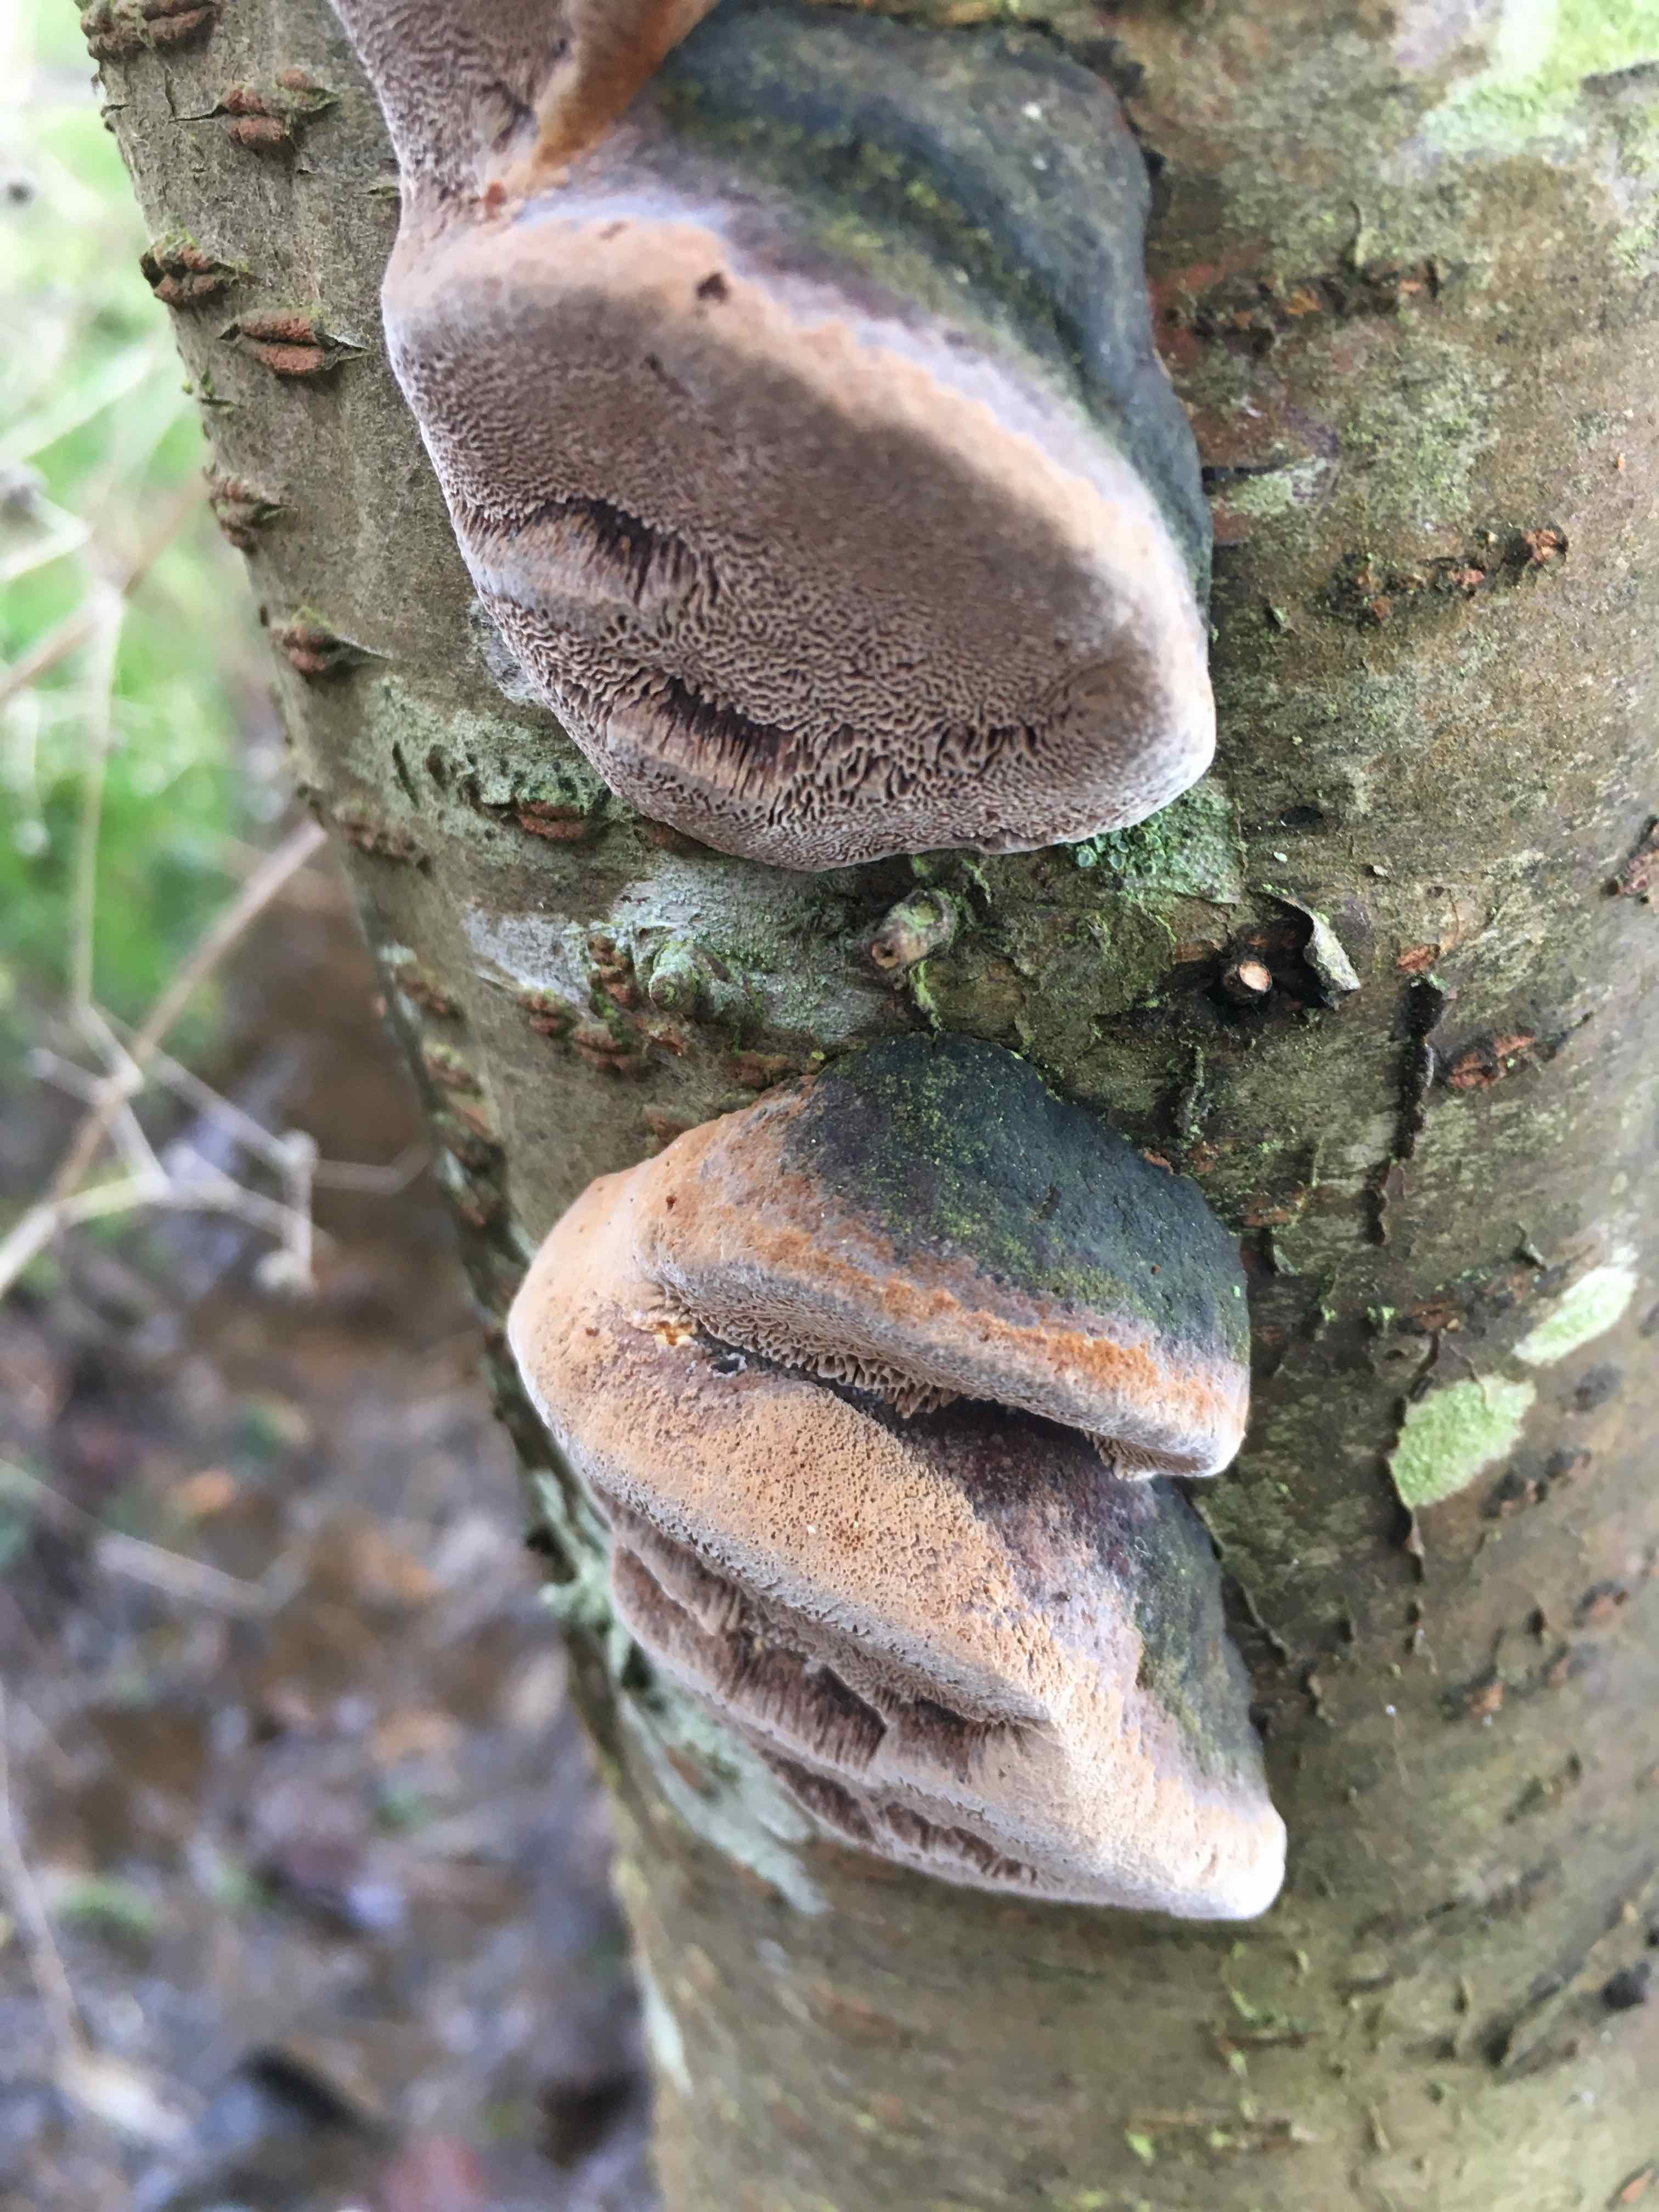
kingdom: Fungi
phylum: Basidiomycota
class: Agaricomycetes
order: Hymenochaetales
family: Hymenochaetaceae
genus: Phellinus
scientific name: Phellinus pomaceus
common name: blomme-ildporesvamp
